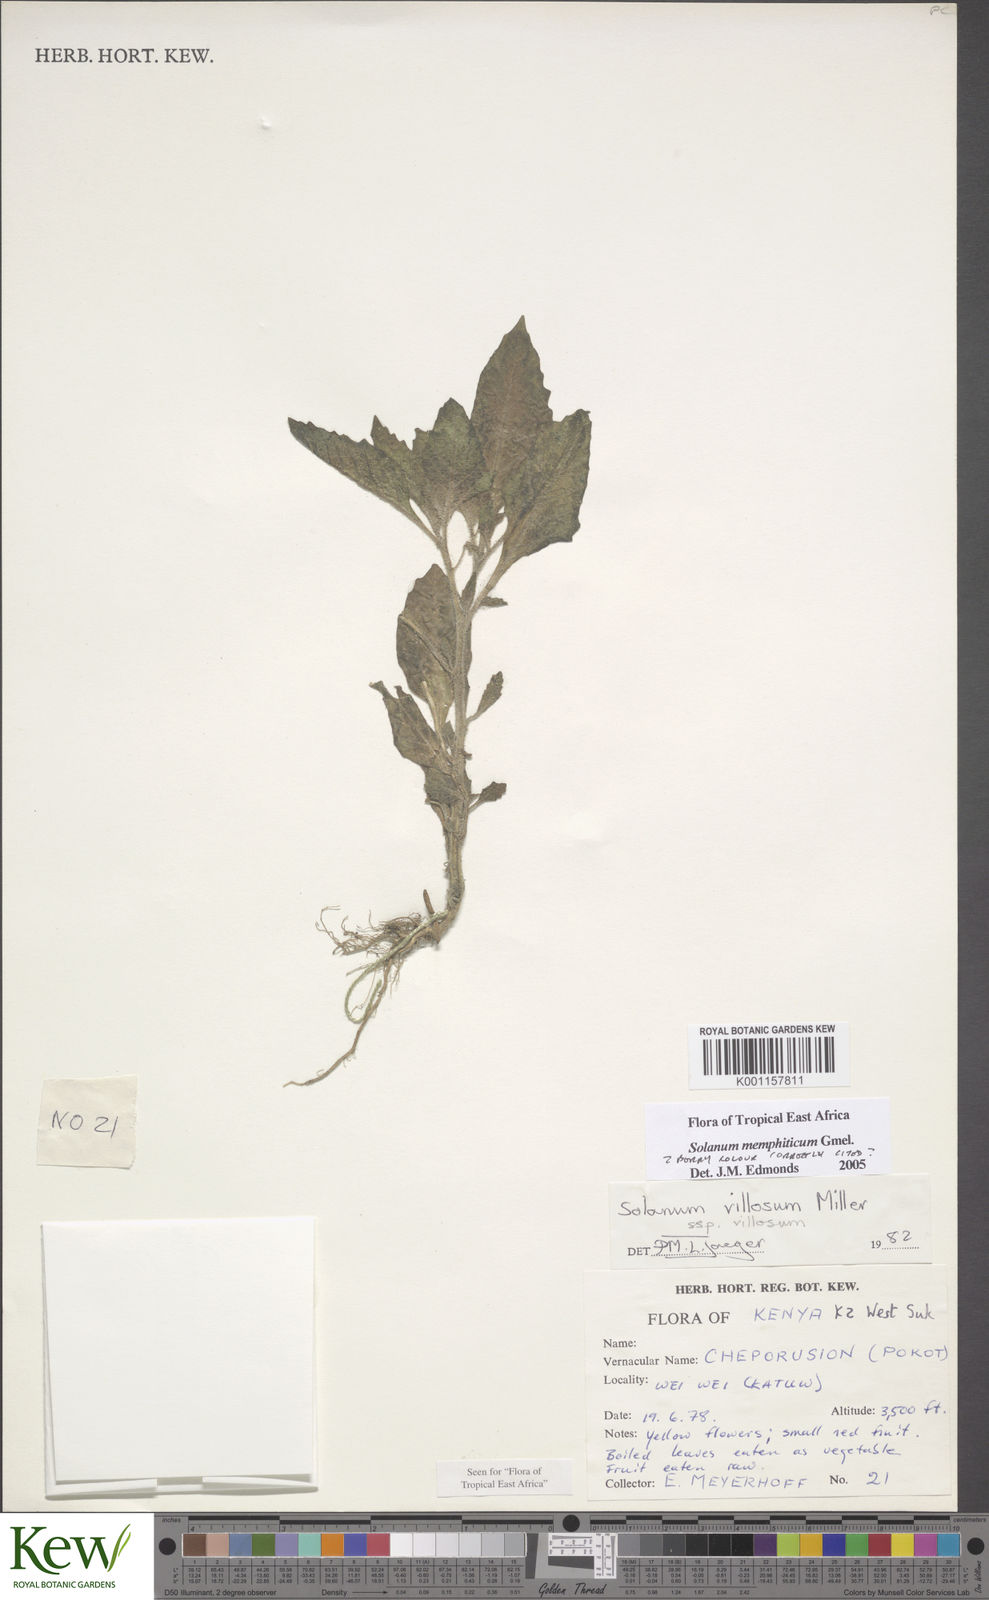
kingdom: Plantae
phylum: Tracheophyta
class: Magnoliopsida
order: Solanales
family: Solanaceae
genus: Solanum
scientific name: Solanum memphiticum
